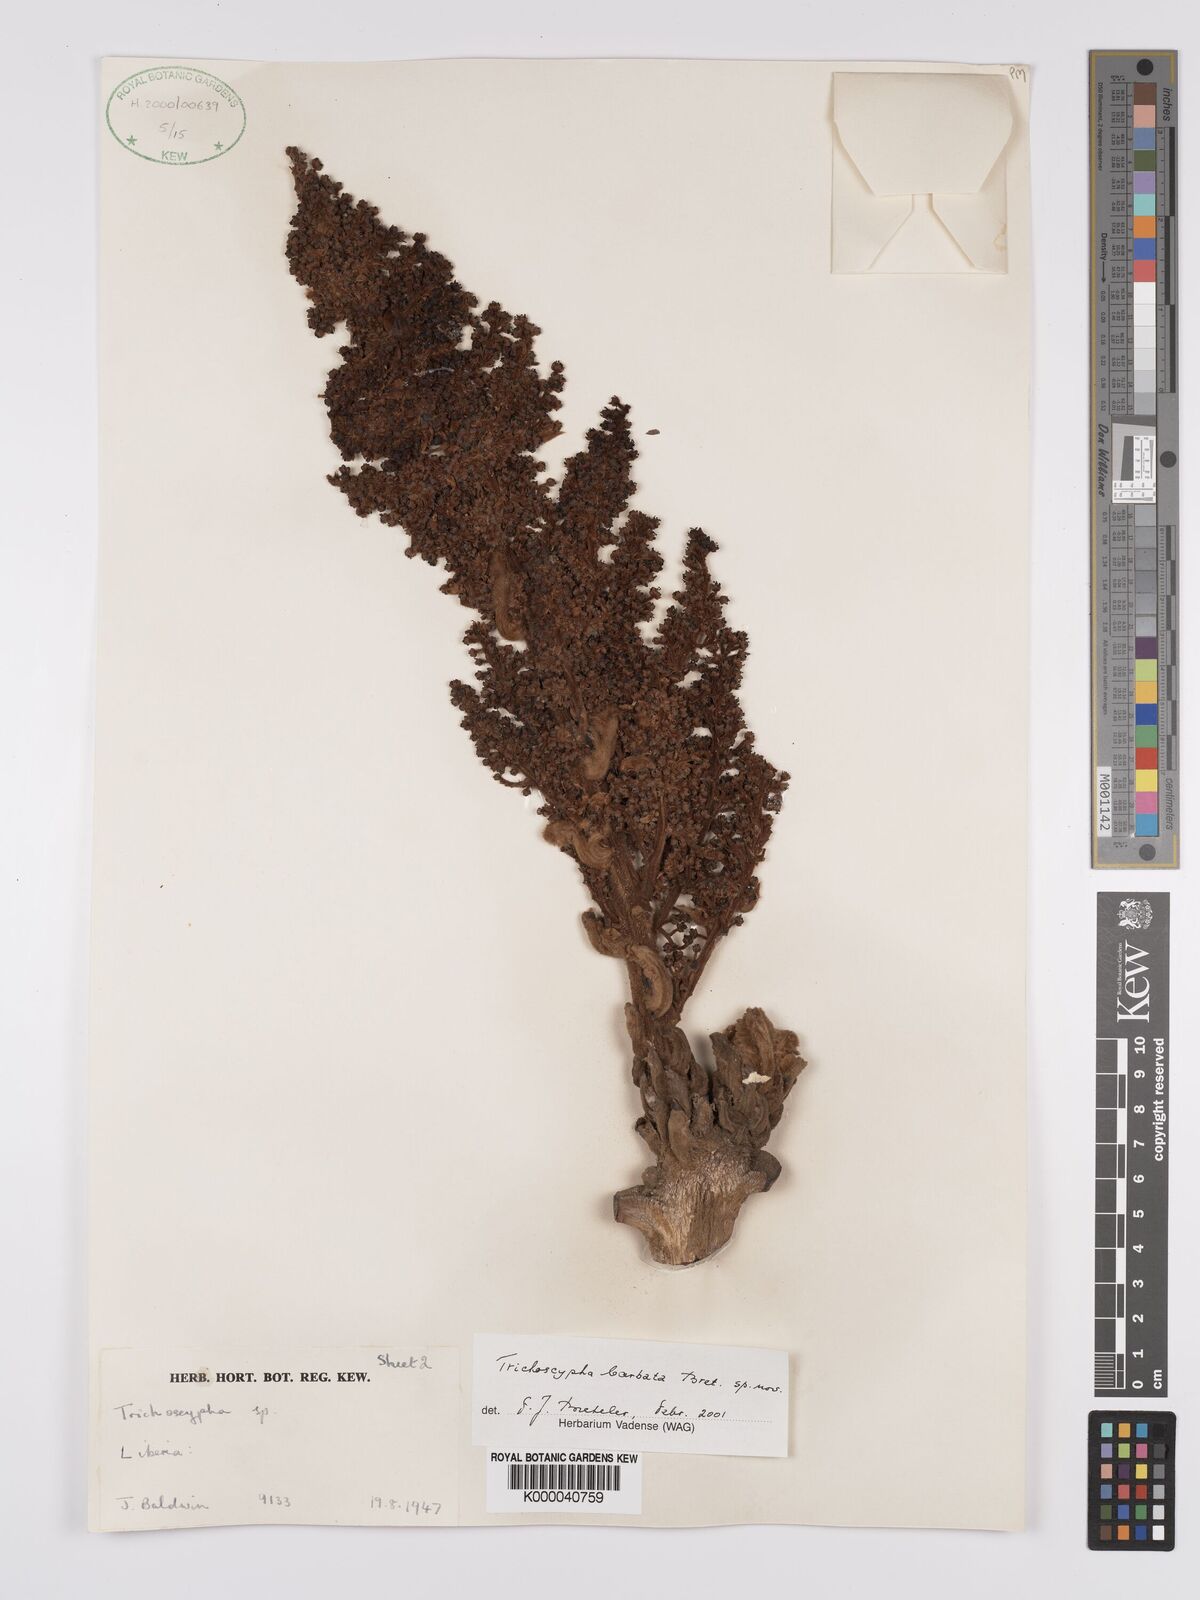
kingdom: Plantae
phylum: Tracheophyta
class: Magnoliopsida
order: Sapindales
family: Anacardiaceae
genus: Trichoscypha
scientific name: Trichoscypha barbata
